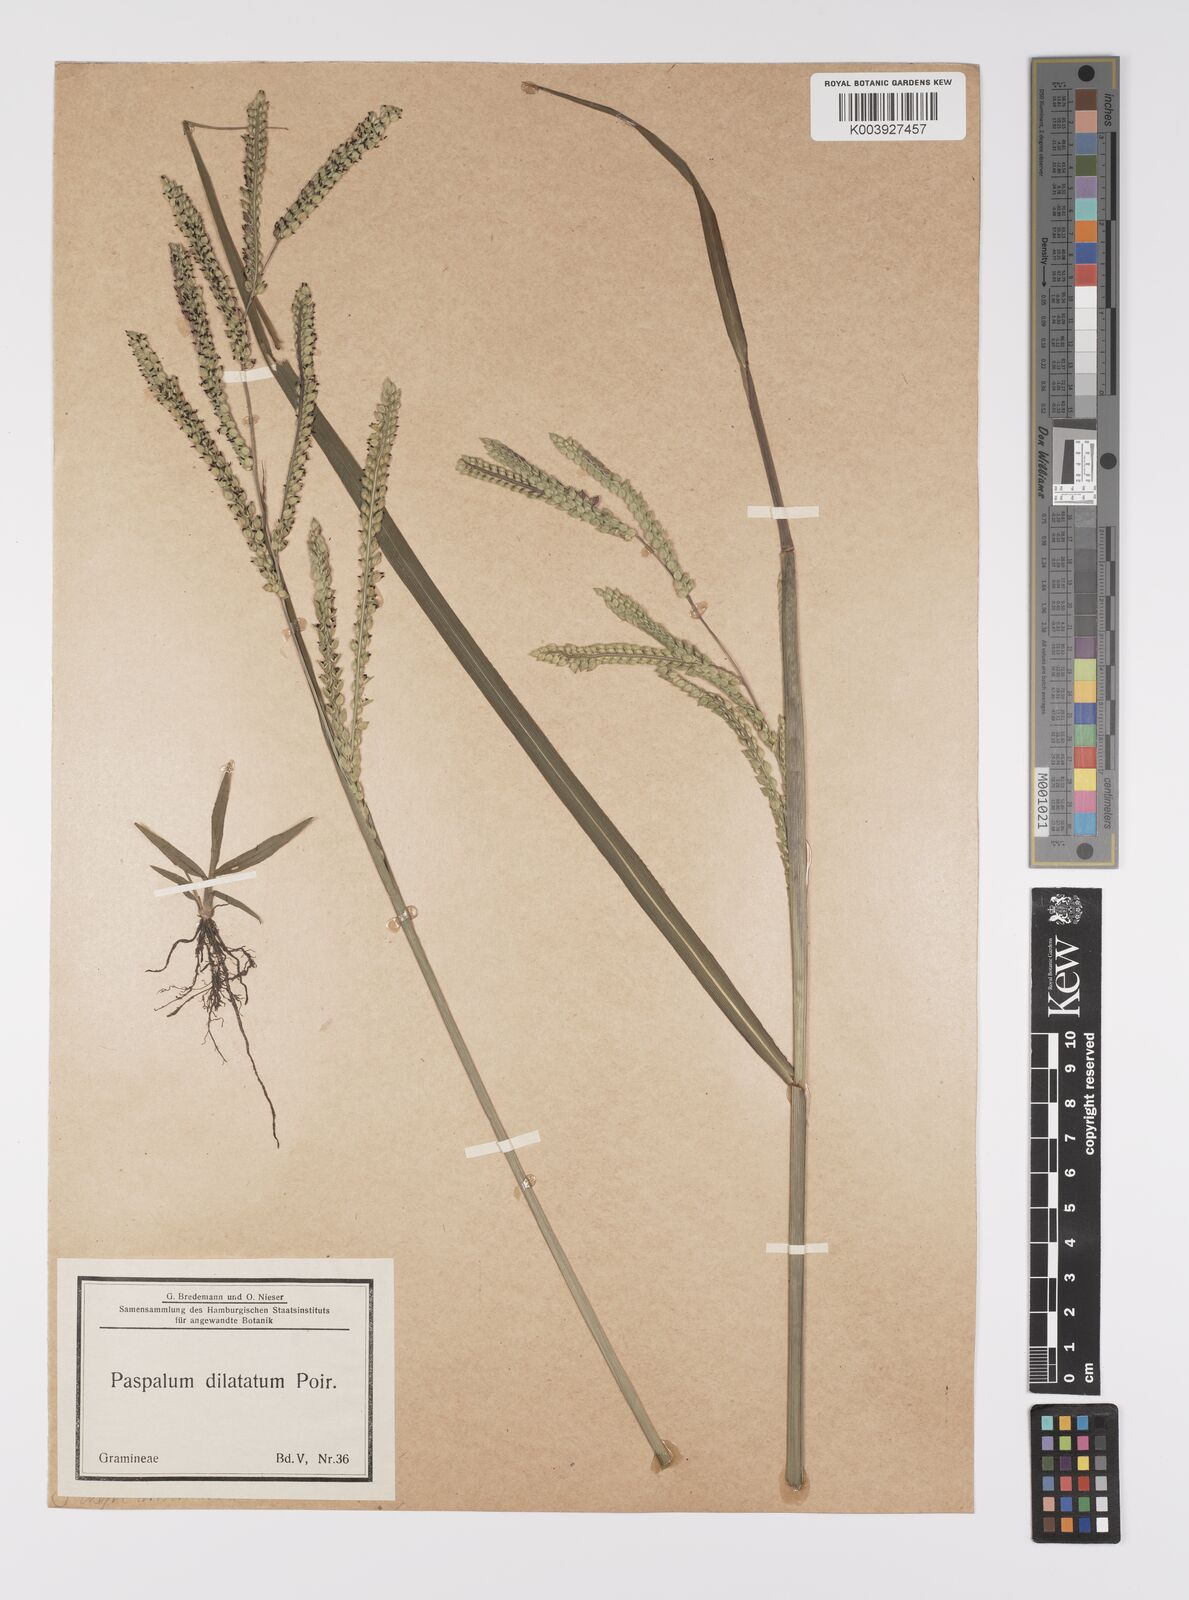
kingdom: Plantae
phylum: Tracheophyta
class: Liliopsida
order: Poales
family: Poaceae
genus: Paspalum
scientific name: Paspalum dilatatum
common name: Dallisgrass
